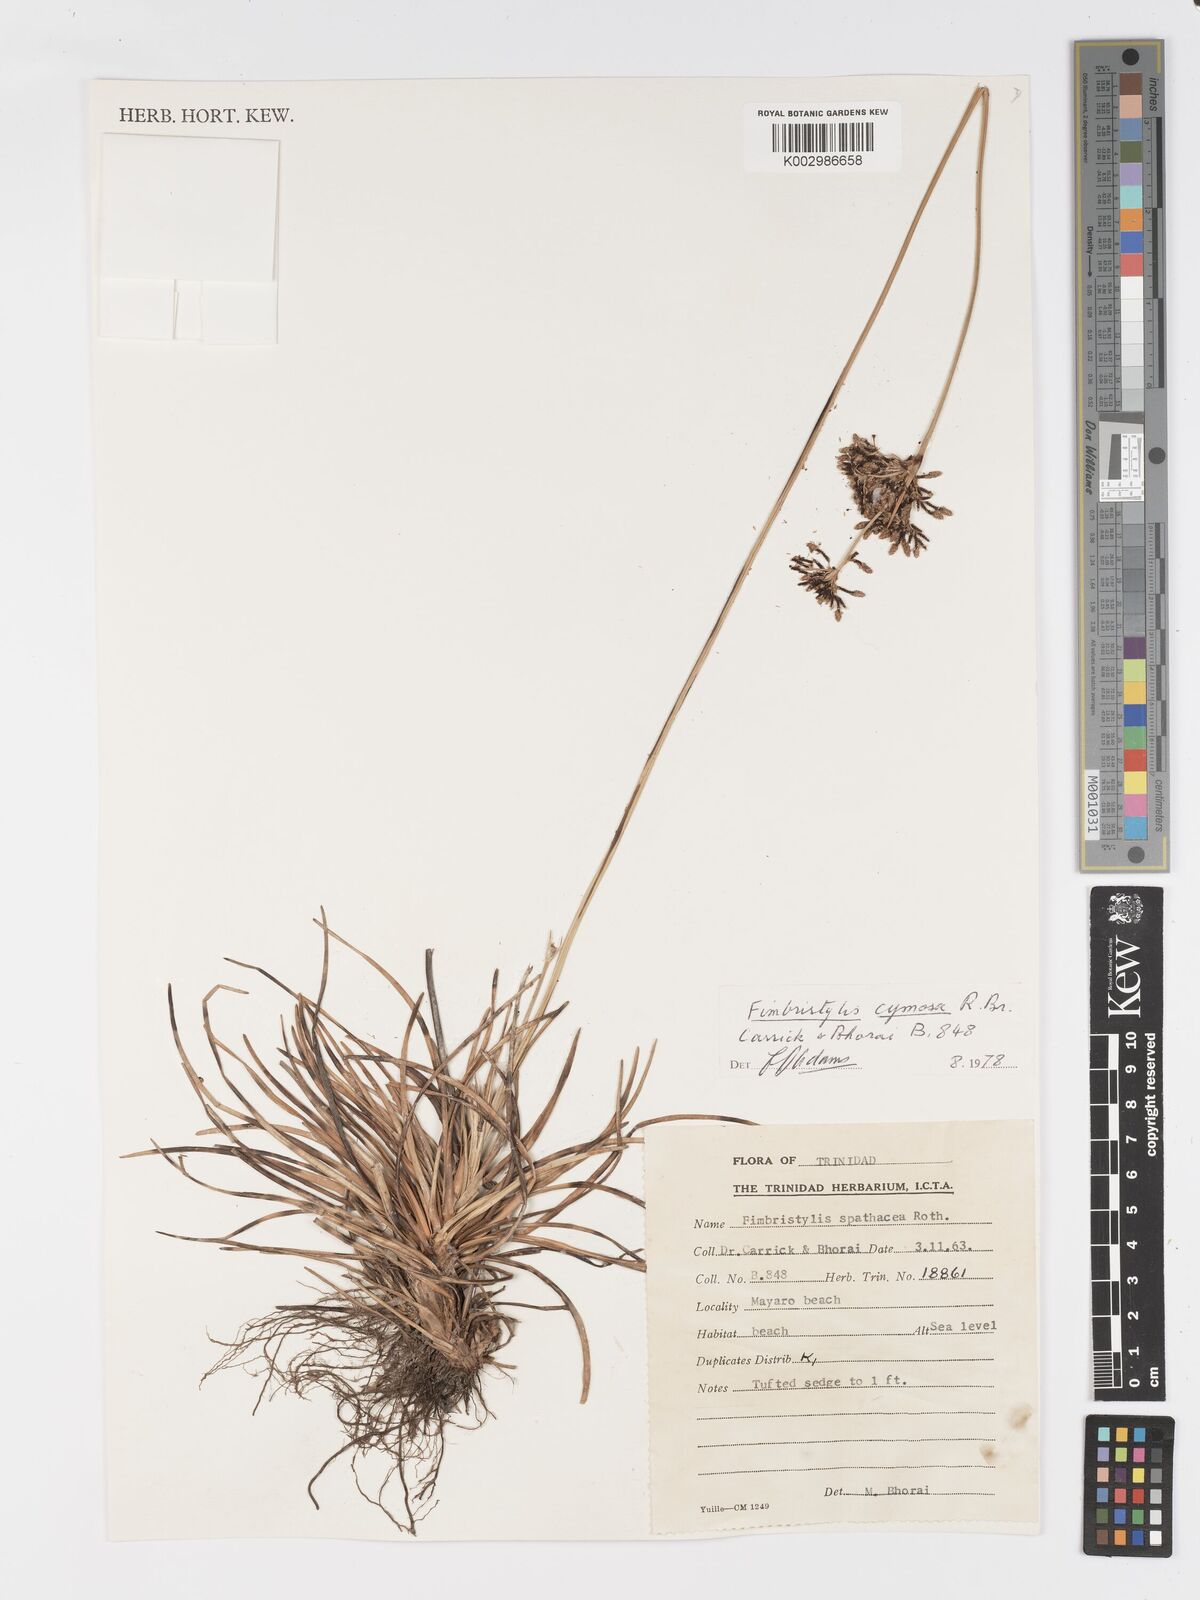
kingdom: Plantae
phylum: Tracheophyta
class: Liliopsida
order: Poales
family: Cyperaceae
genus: Fimbristylis
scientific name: Fimbristylis cymosa
